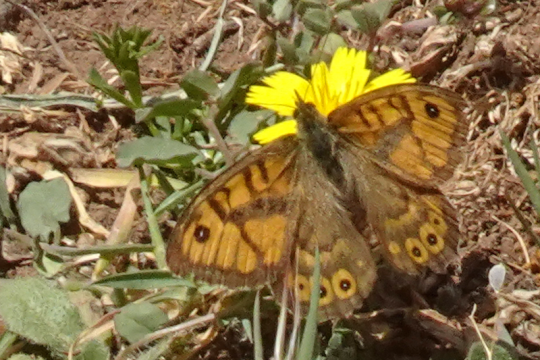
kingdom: Animalia
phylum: Arthropoda
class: Insecta
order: Lepidoptera
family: Nymphalidae
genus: Pararge
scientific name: Pararge Lasiommata megera
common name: Wall
